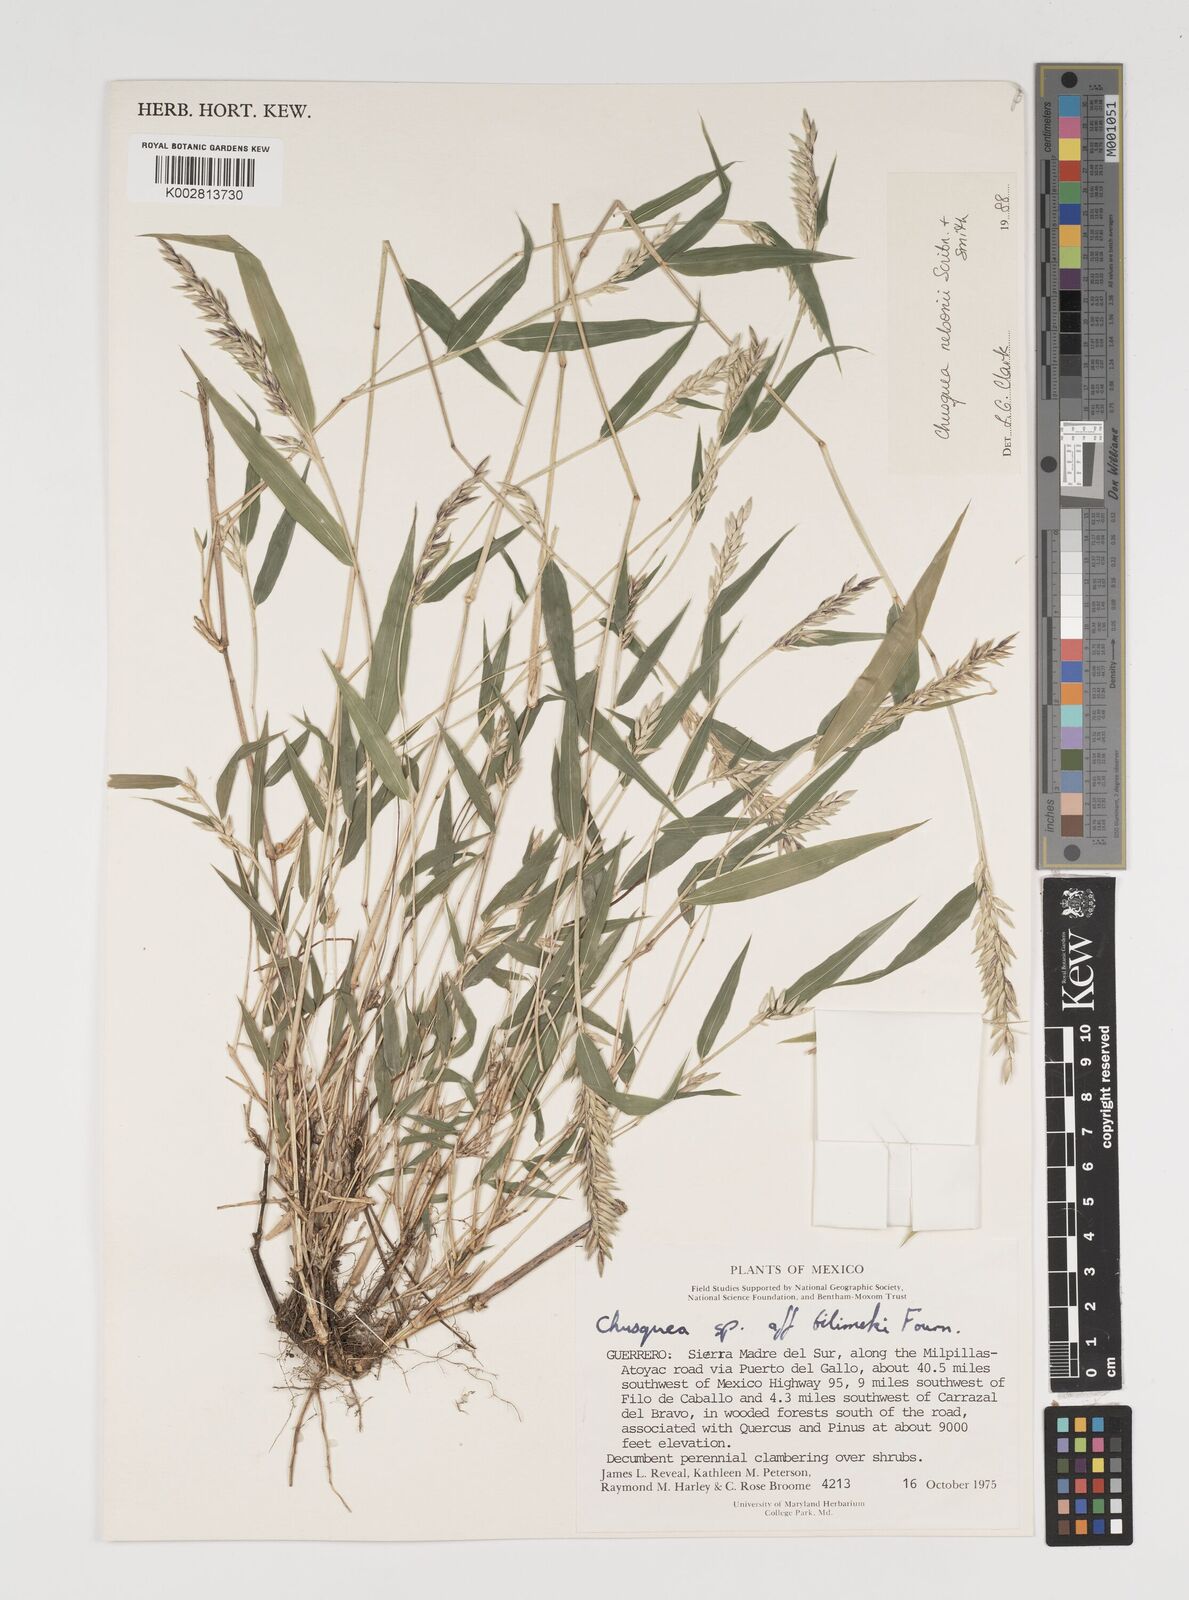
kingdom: Plantae
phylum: Tracheophyta
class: Liliopsida
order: Poales
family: Poaceae
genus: Chusquea
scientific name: Chusquea nelsonii
